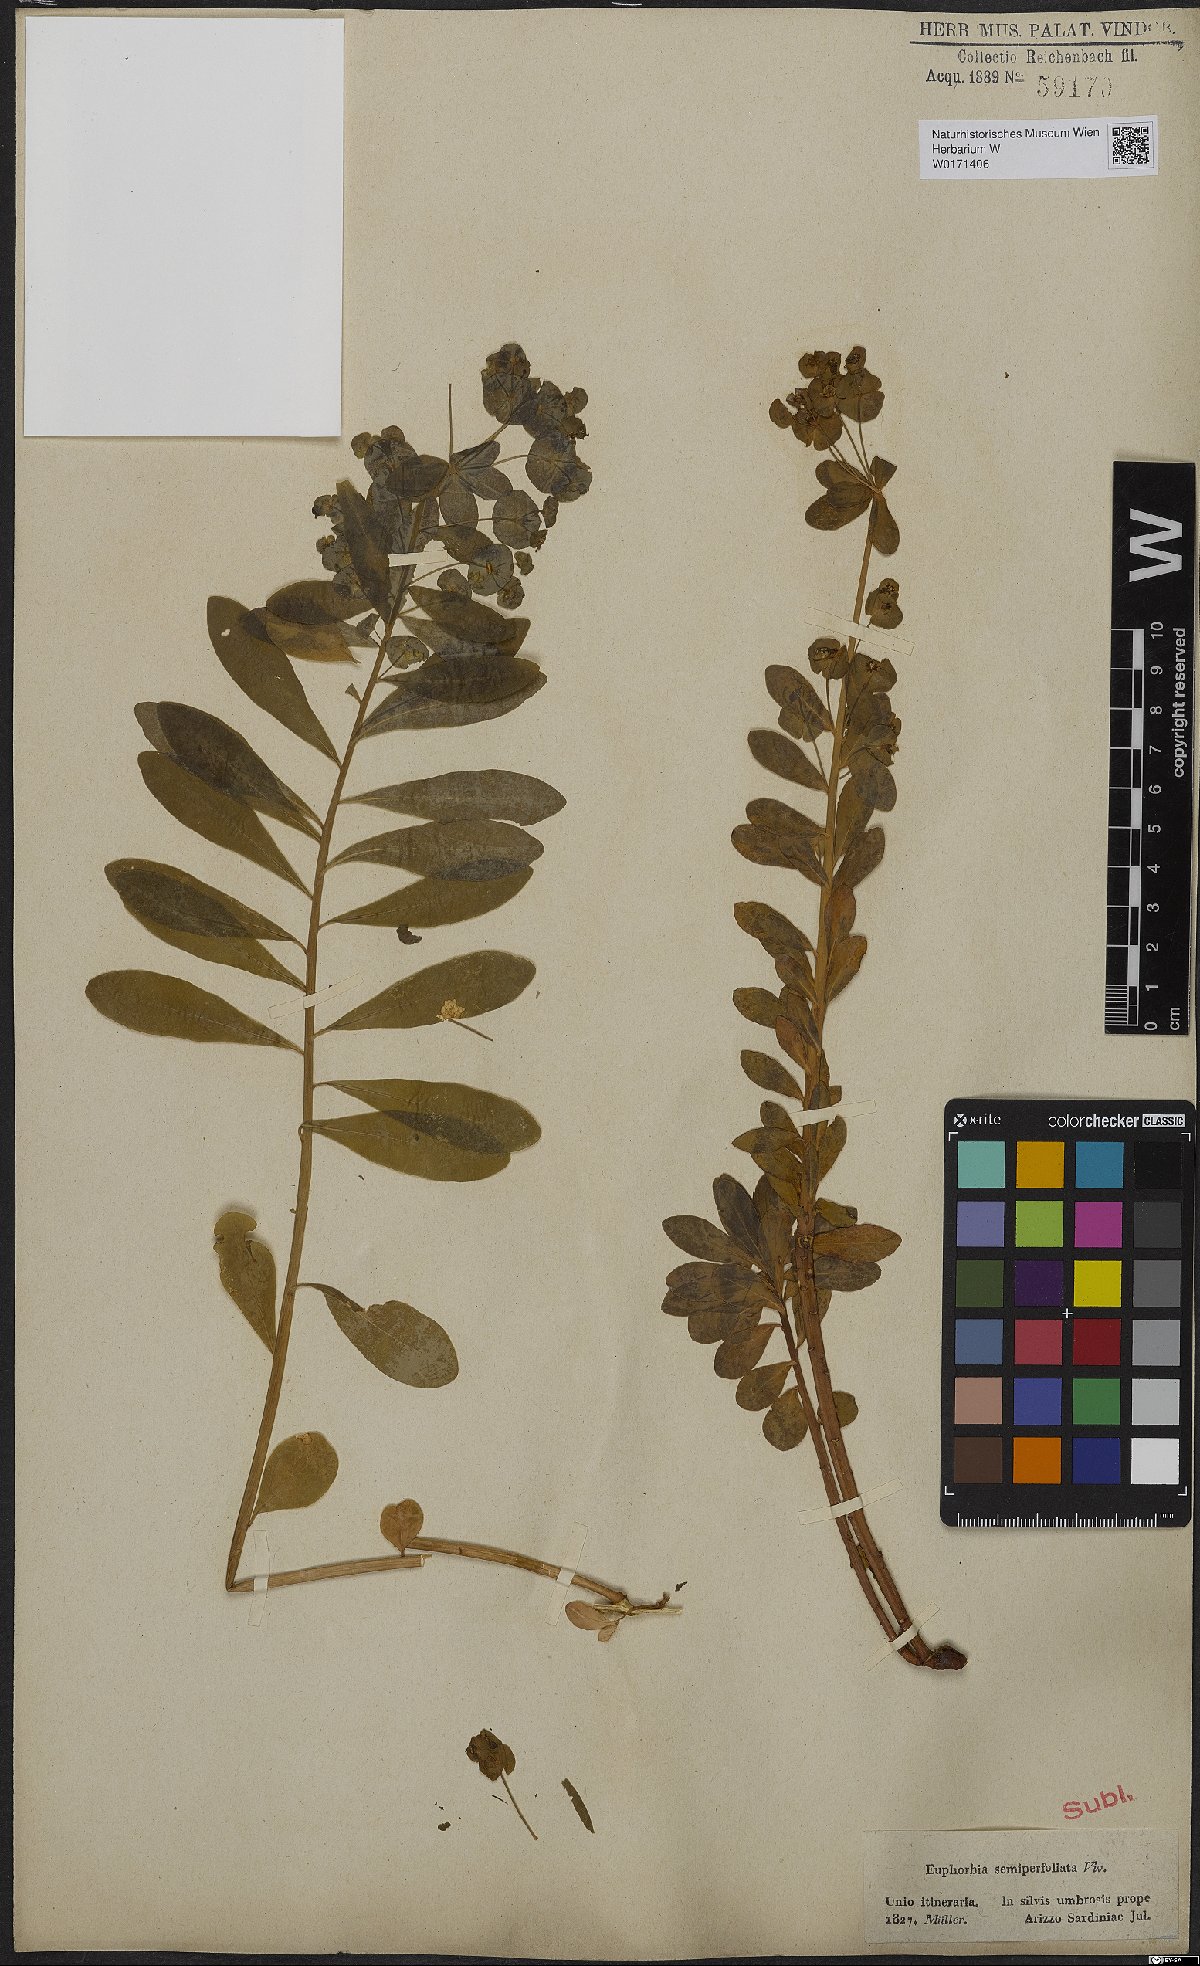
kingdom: Plantae
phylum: Tracheophyta
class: Magnoliopsida
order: Malpighiales
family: Euphorbiaceae
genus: Euphorbia
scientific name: Euphorbia semiperfoliata
